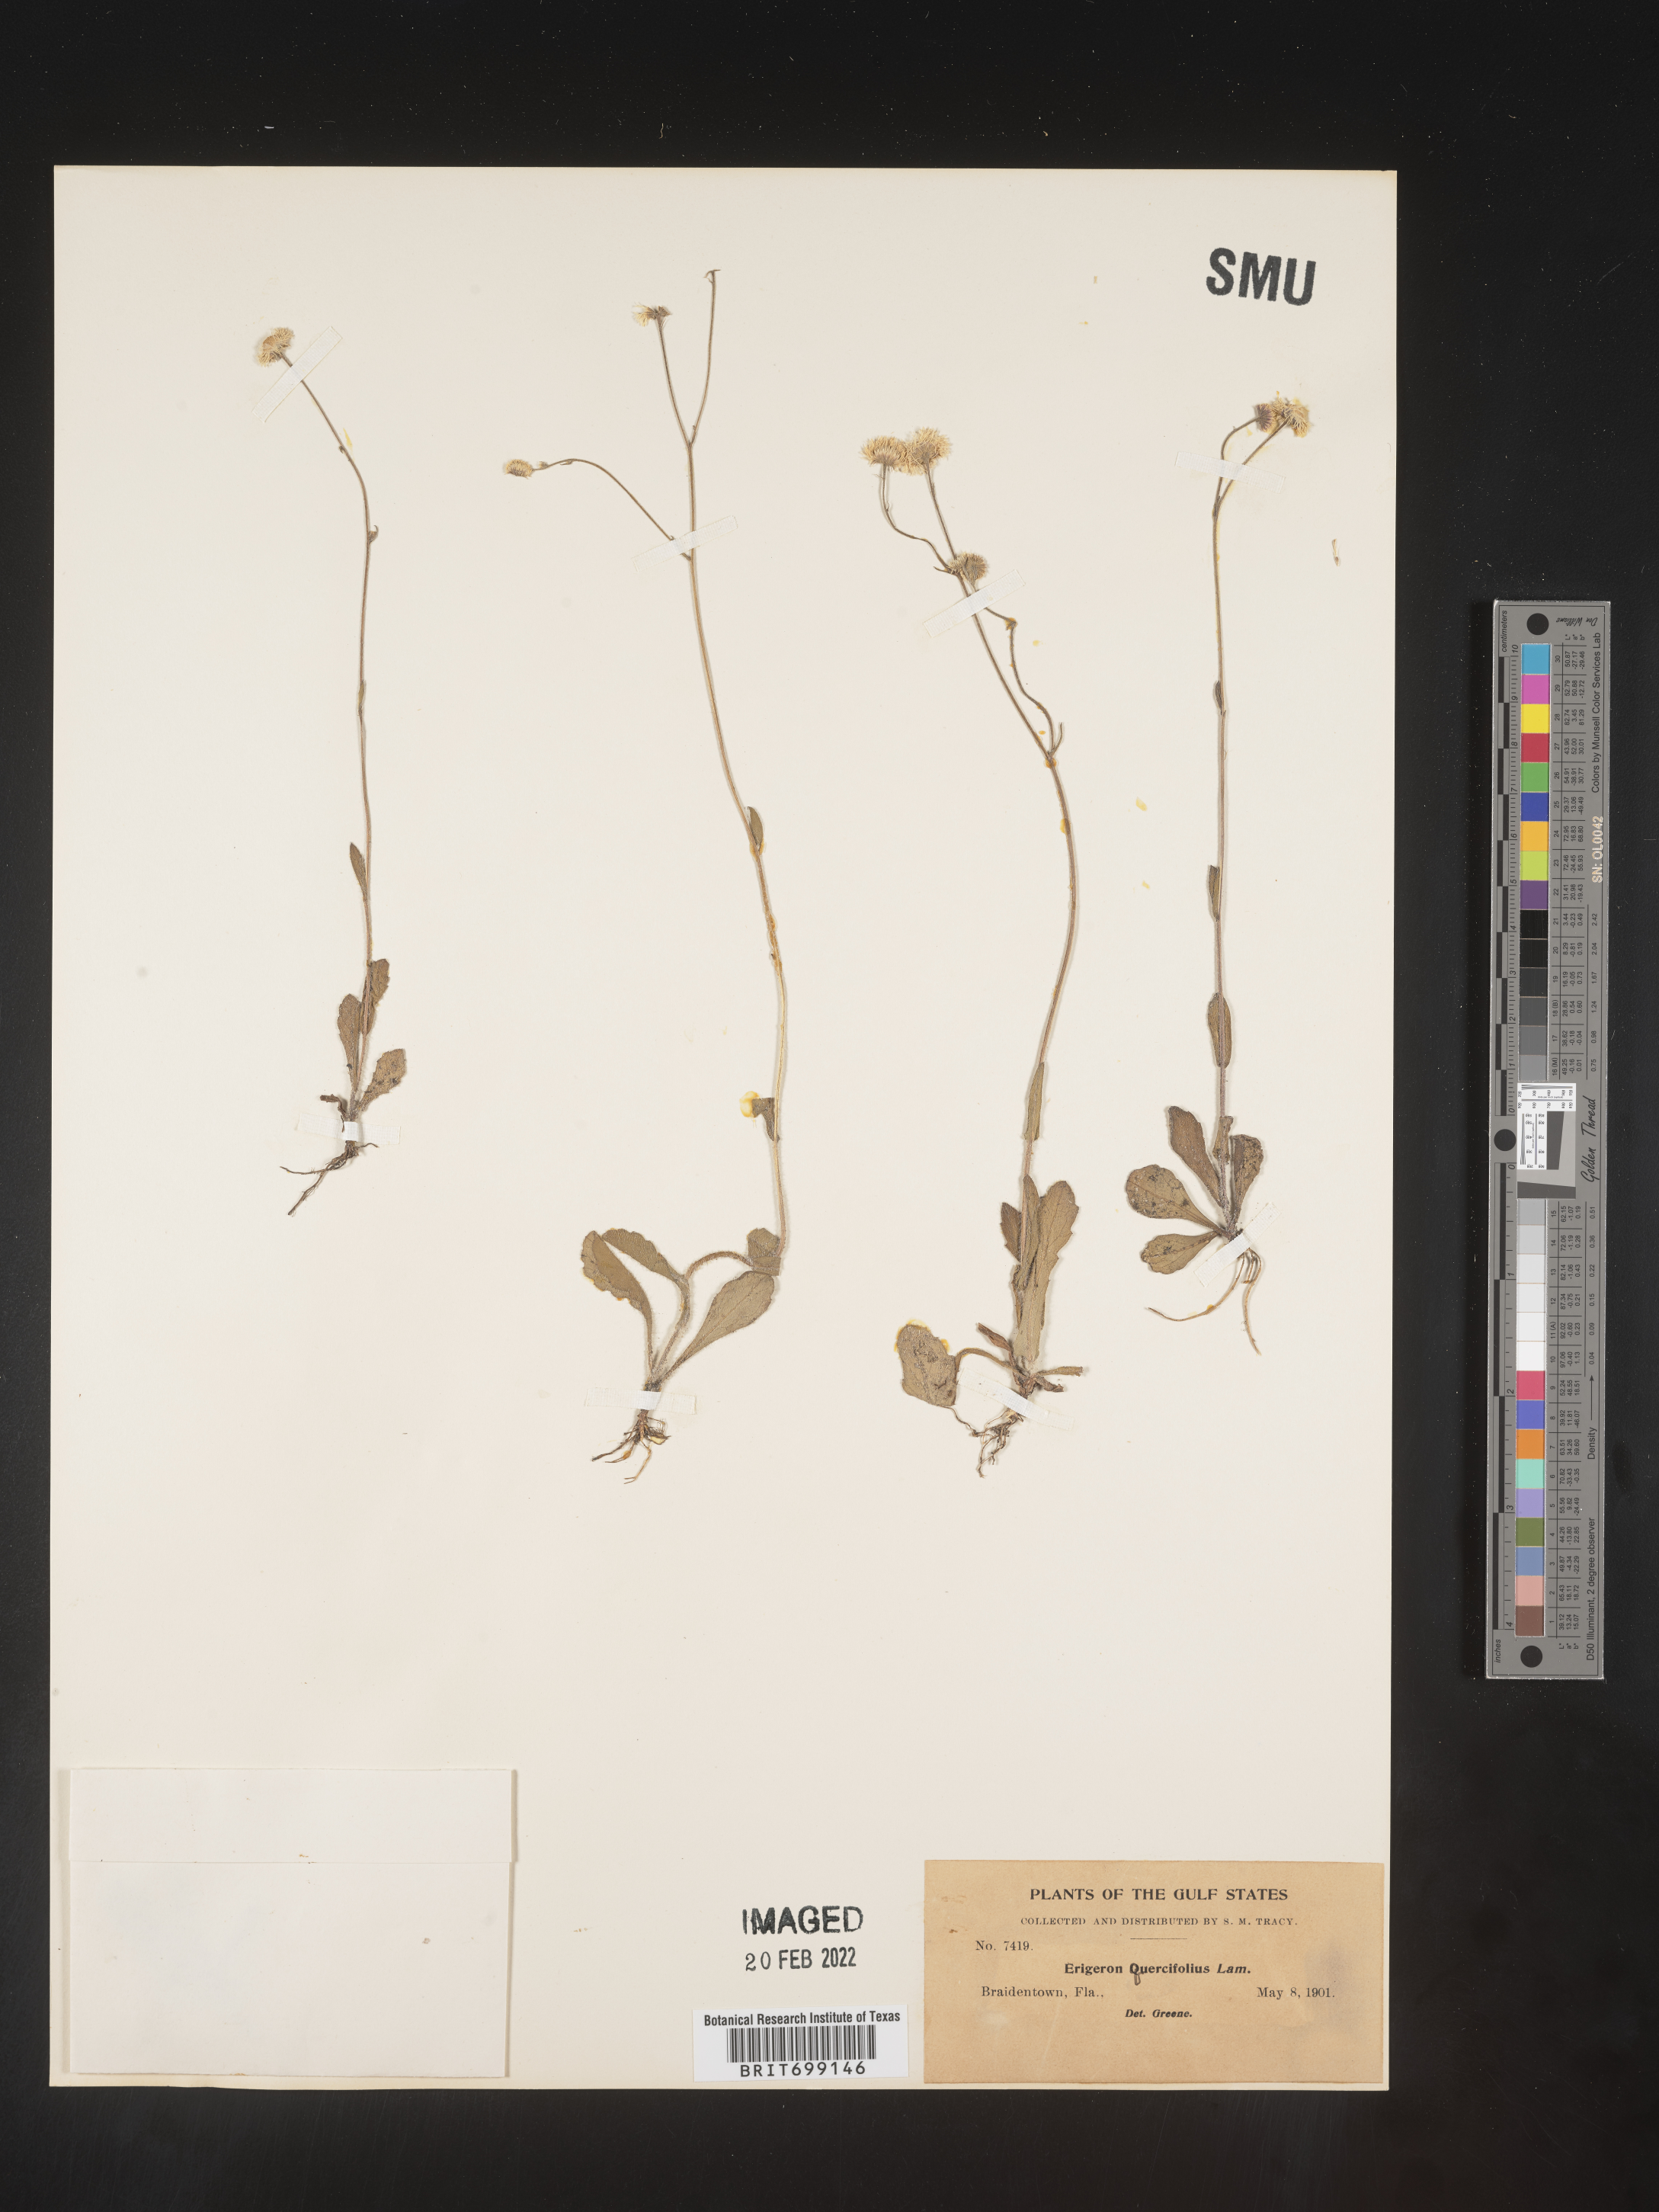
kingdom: Plantae
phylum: Tracheophyta
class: Magnoliopsida
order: Asterales
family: Asteraceae
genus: Erigeron
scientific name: Erigeron quercifolius
